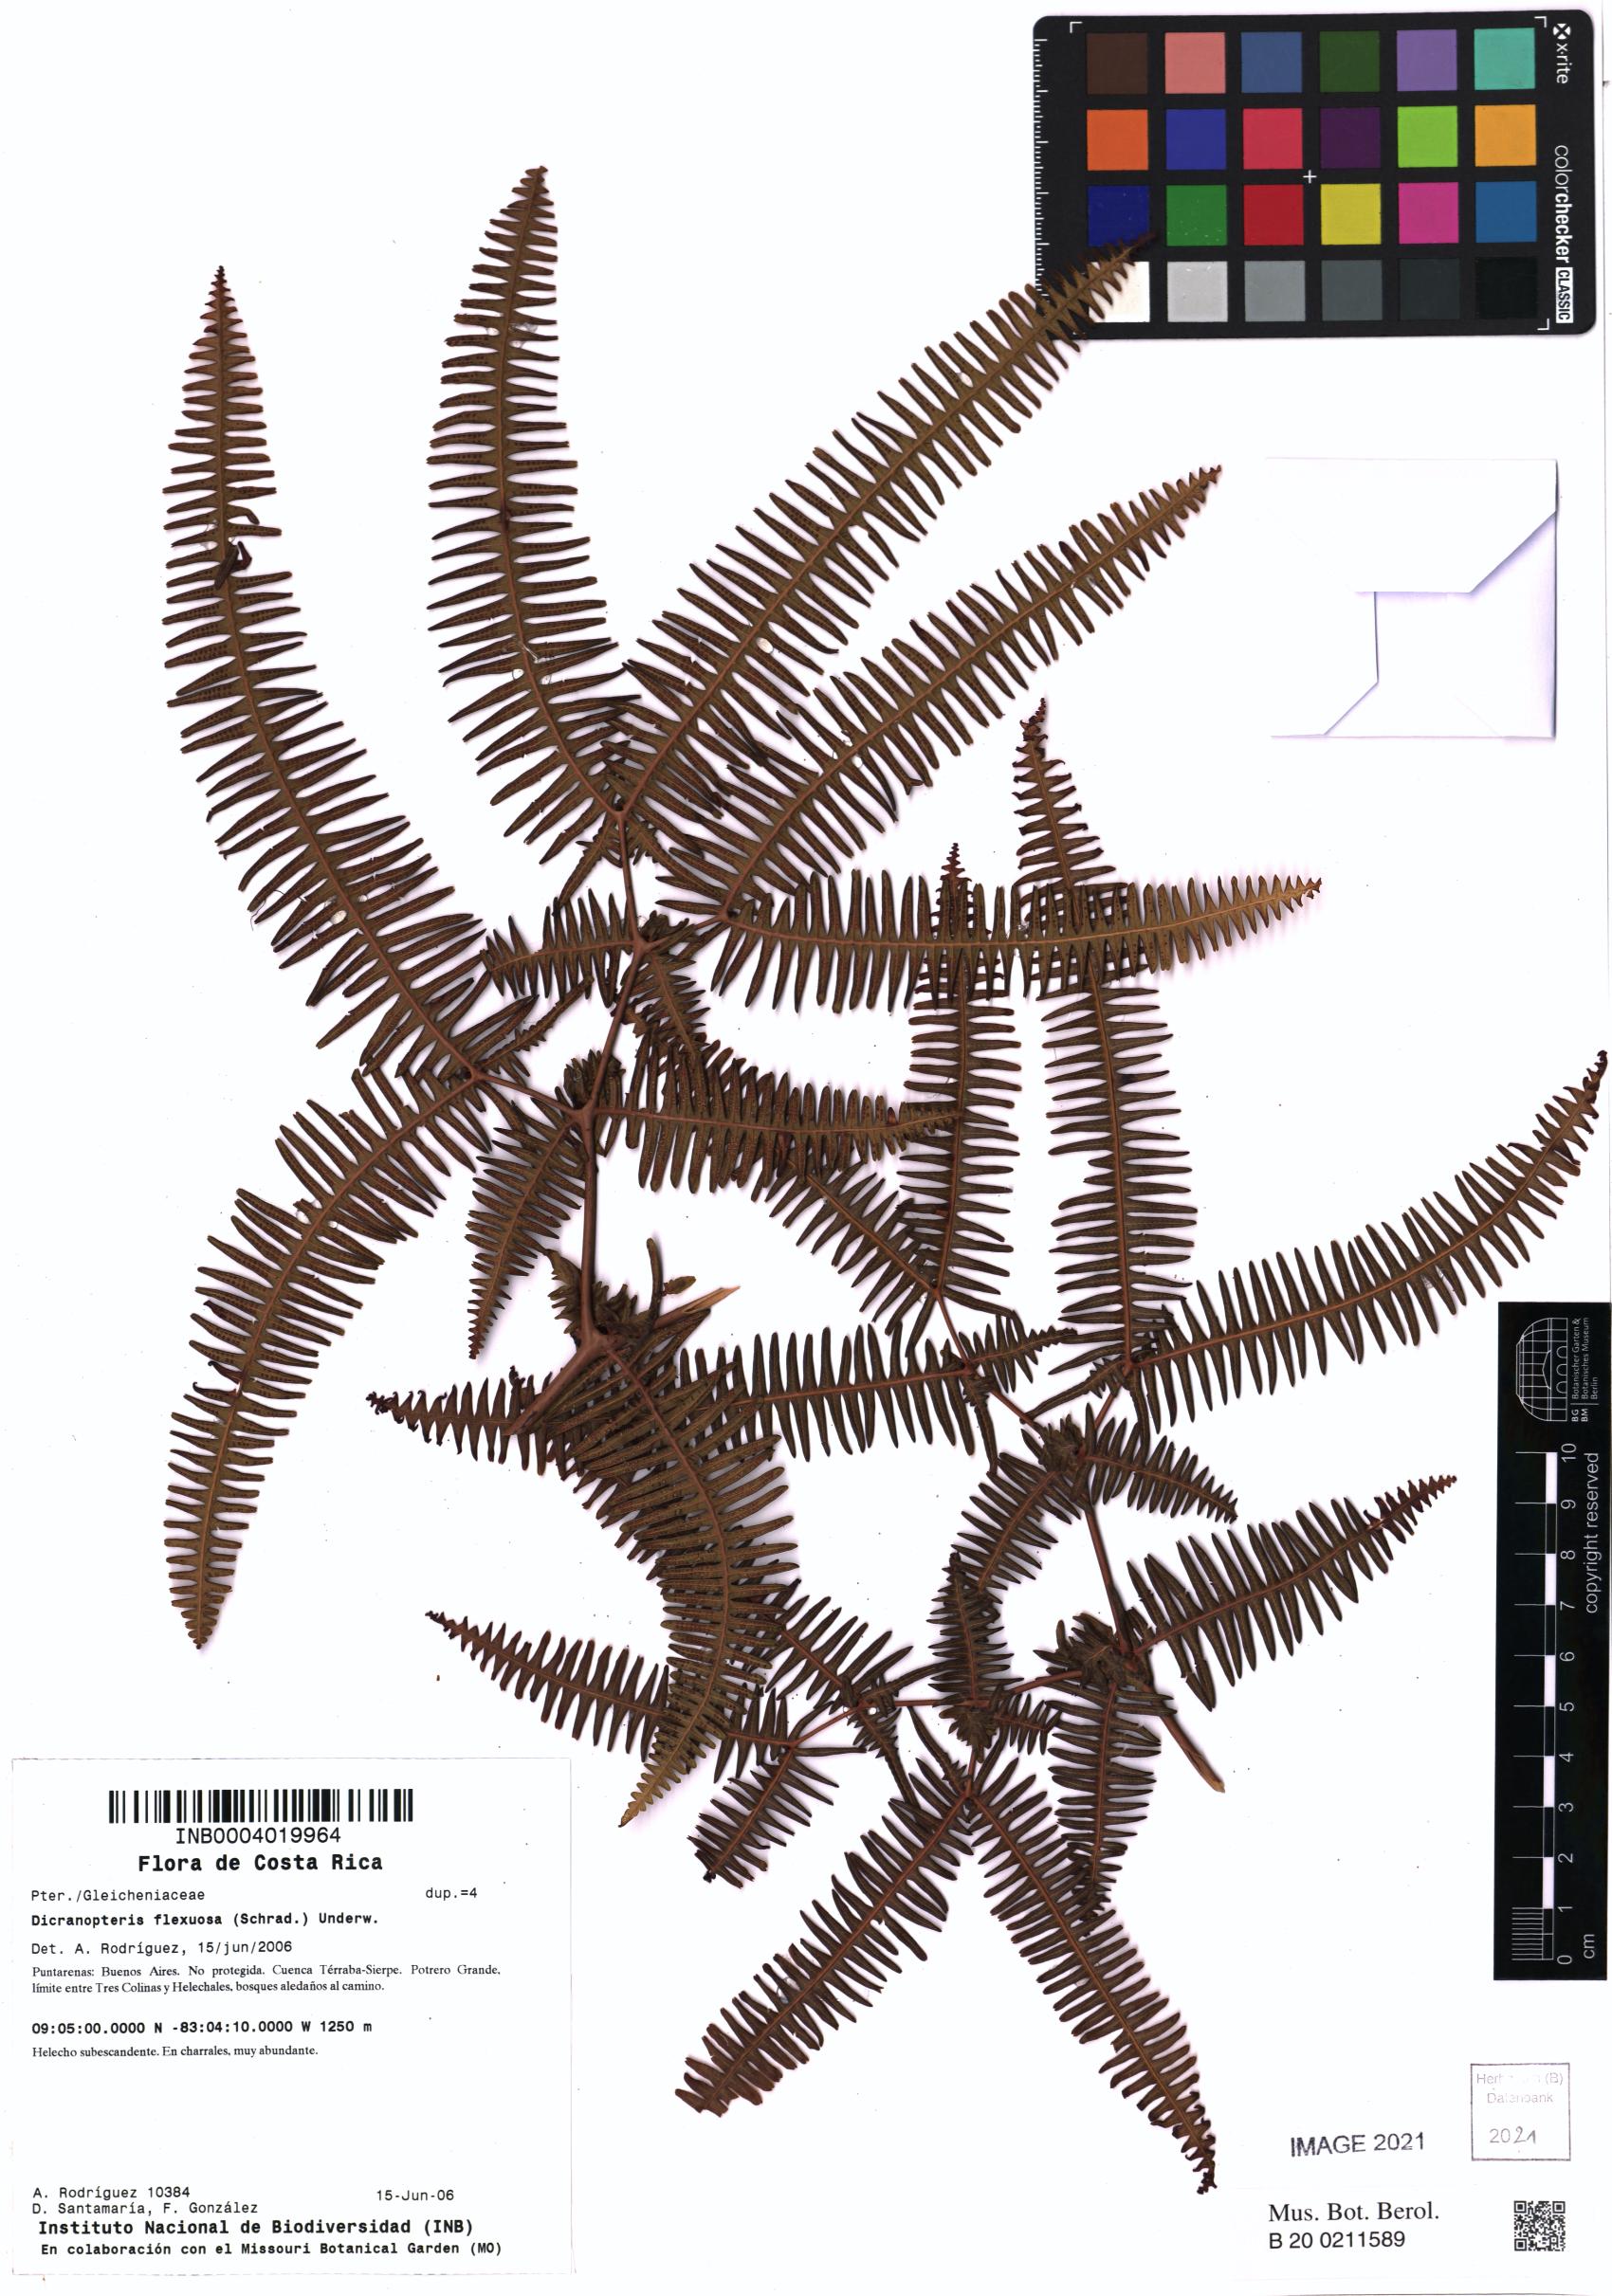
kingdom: Plantae
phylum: Tracheophyta
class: Polypodiopsida
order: Gleicheniales
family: Gleicheniaceae
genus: Dicranopteris
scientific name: Dicranopteris flexuosa
